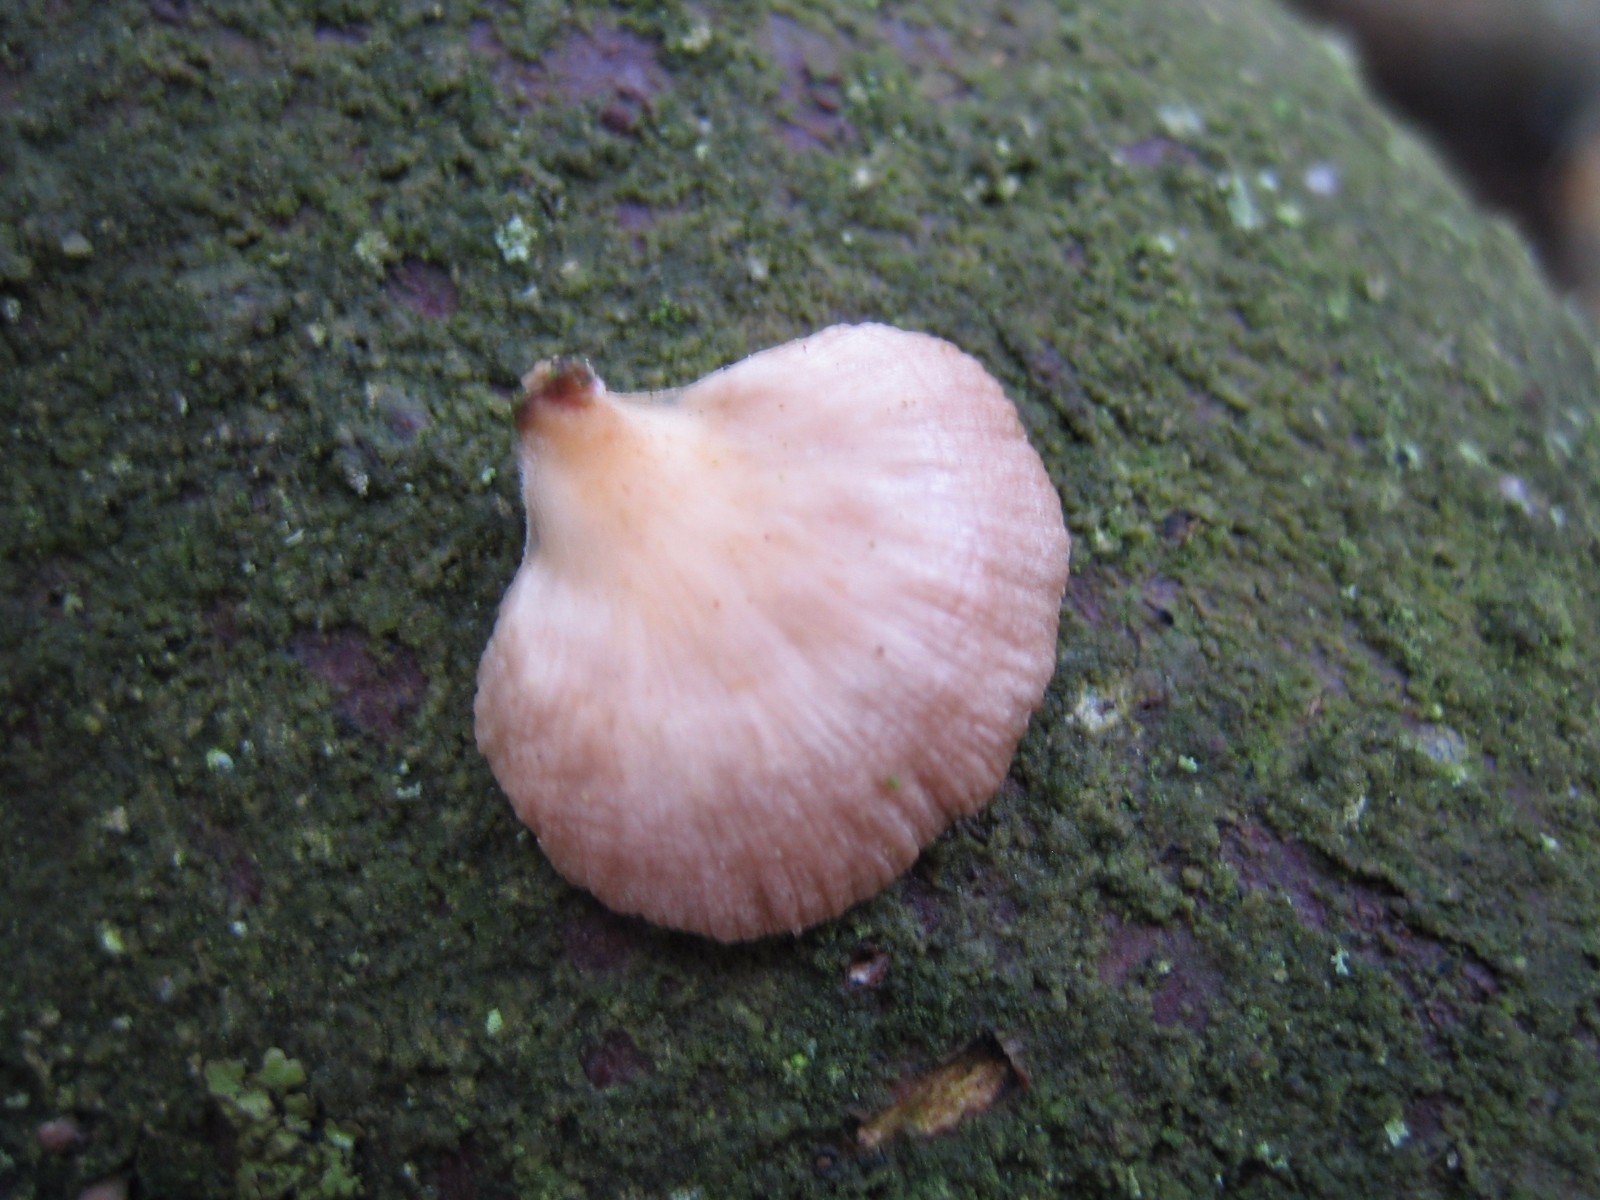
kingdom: Fungi
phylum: Basidiomycota
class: Agaricomycetes
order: Agaricales
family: Mycenaceae
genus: Panellus
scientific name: Panellus mitis
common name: mild epaulethat
